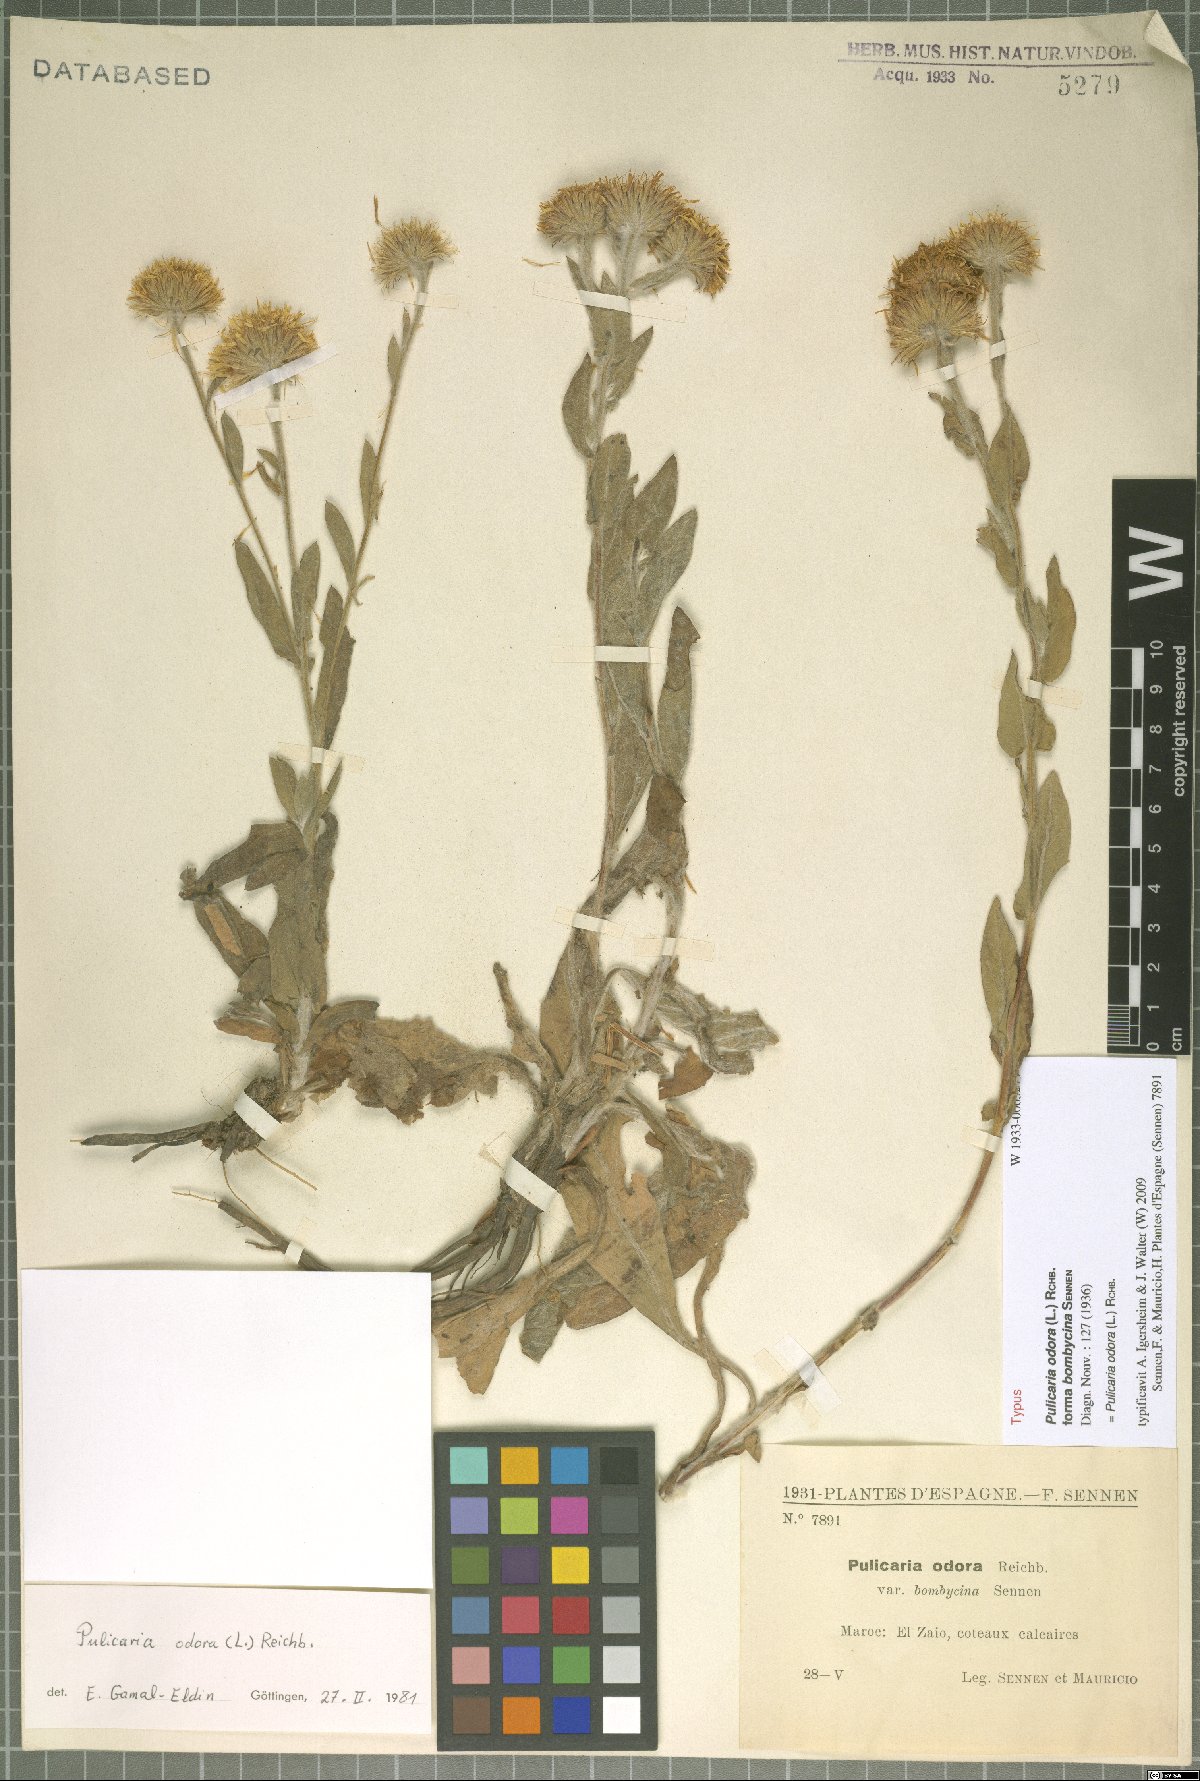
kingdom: Plantae
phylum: Tracheophyta
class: Magnoliopsida
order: Asterales
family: Asteraceae
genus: Pulicaria
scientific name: Pulicaria odora
